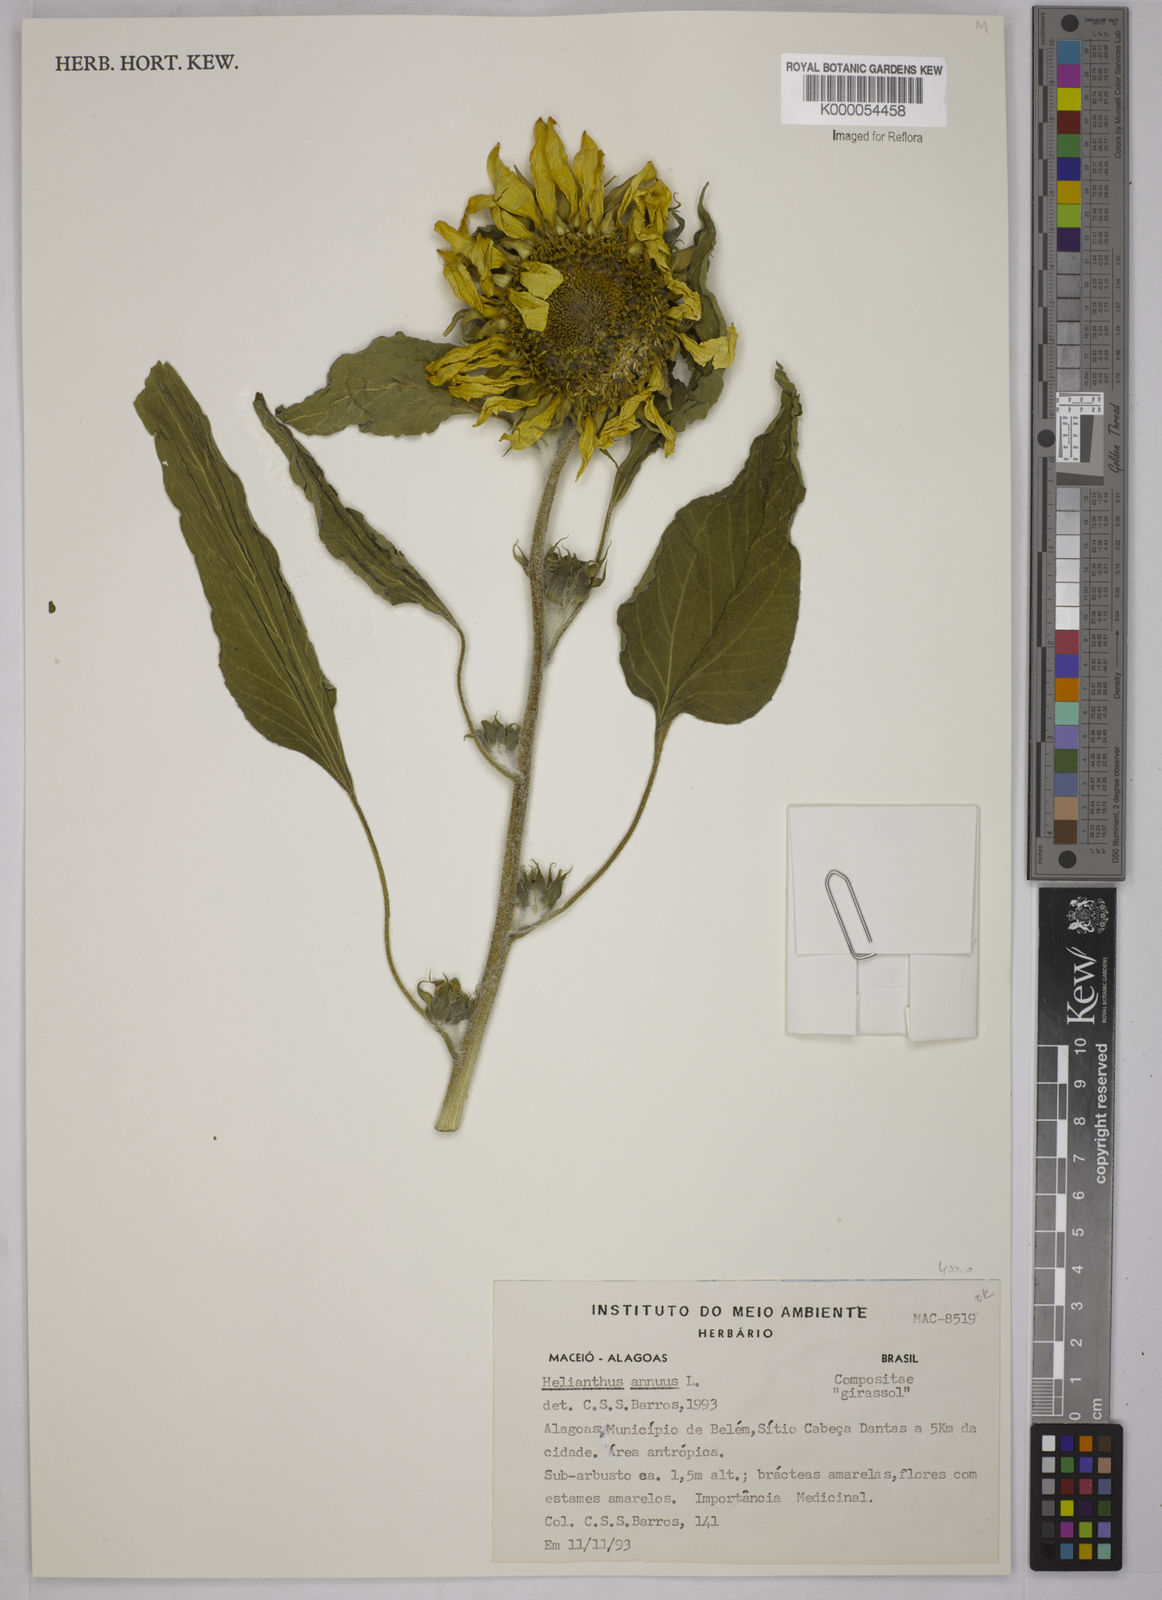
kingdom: Plantae
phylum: Tracheophyta
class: Magnoliopsida
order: Asterales
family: Asteraceae
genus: Helianthus
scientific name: Helianthus annuus
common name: Sunflower
